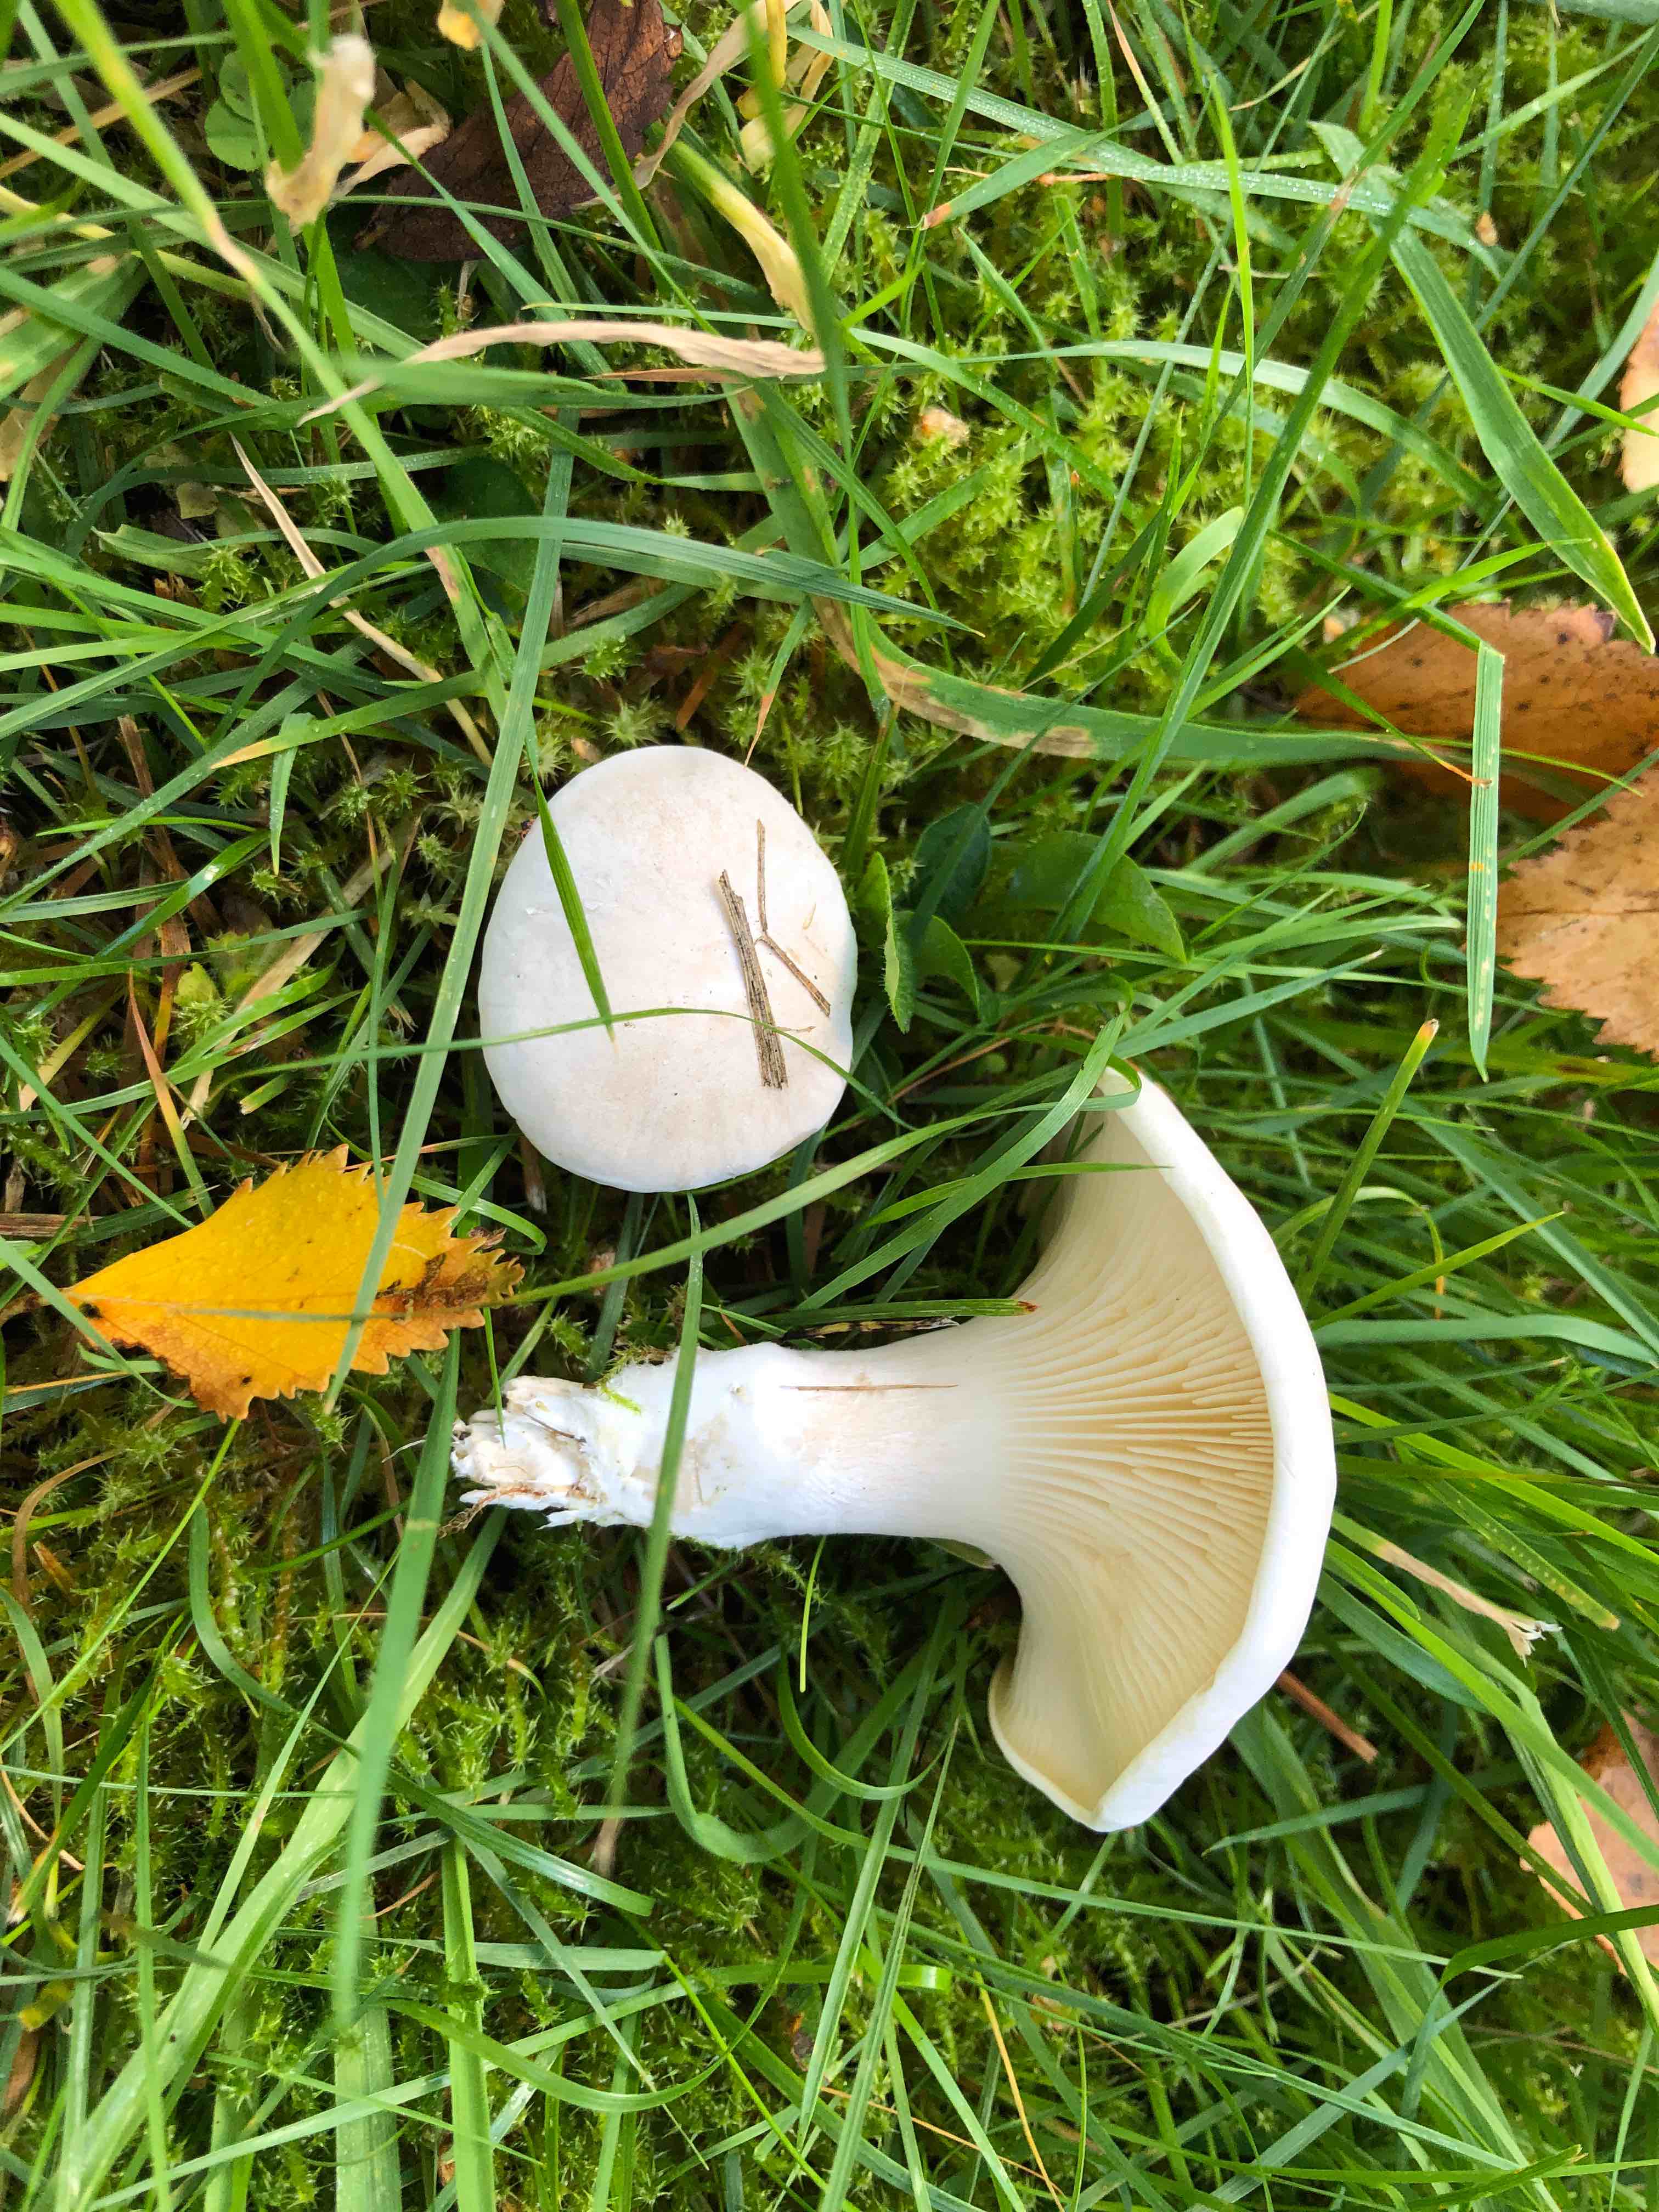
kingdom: Fungi
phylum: Basidiomycota
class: Agaricomycetes
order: Agaricales
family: Entolomataceae
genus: Clitopilus
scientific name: Clitopilus prunulus
